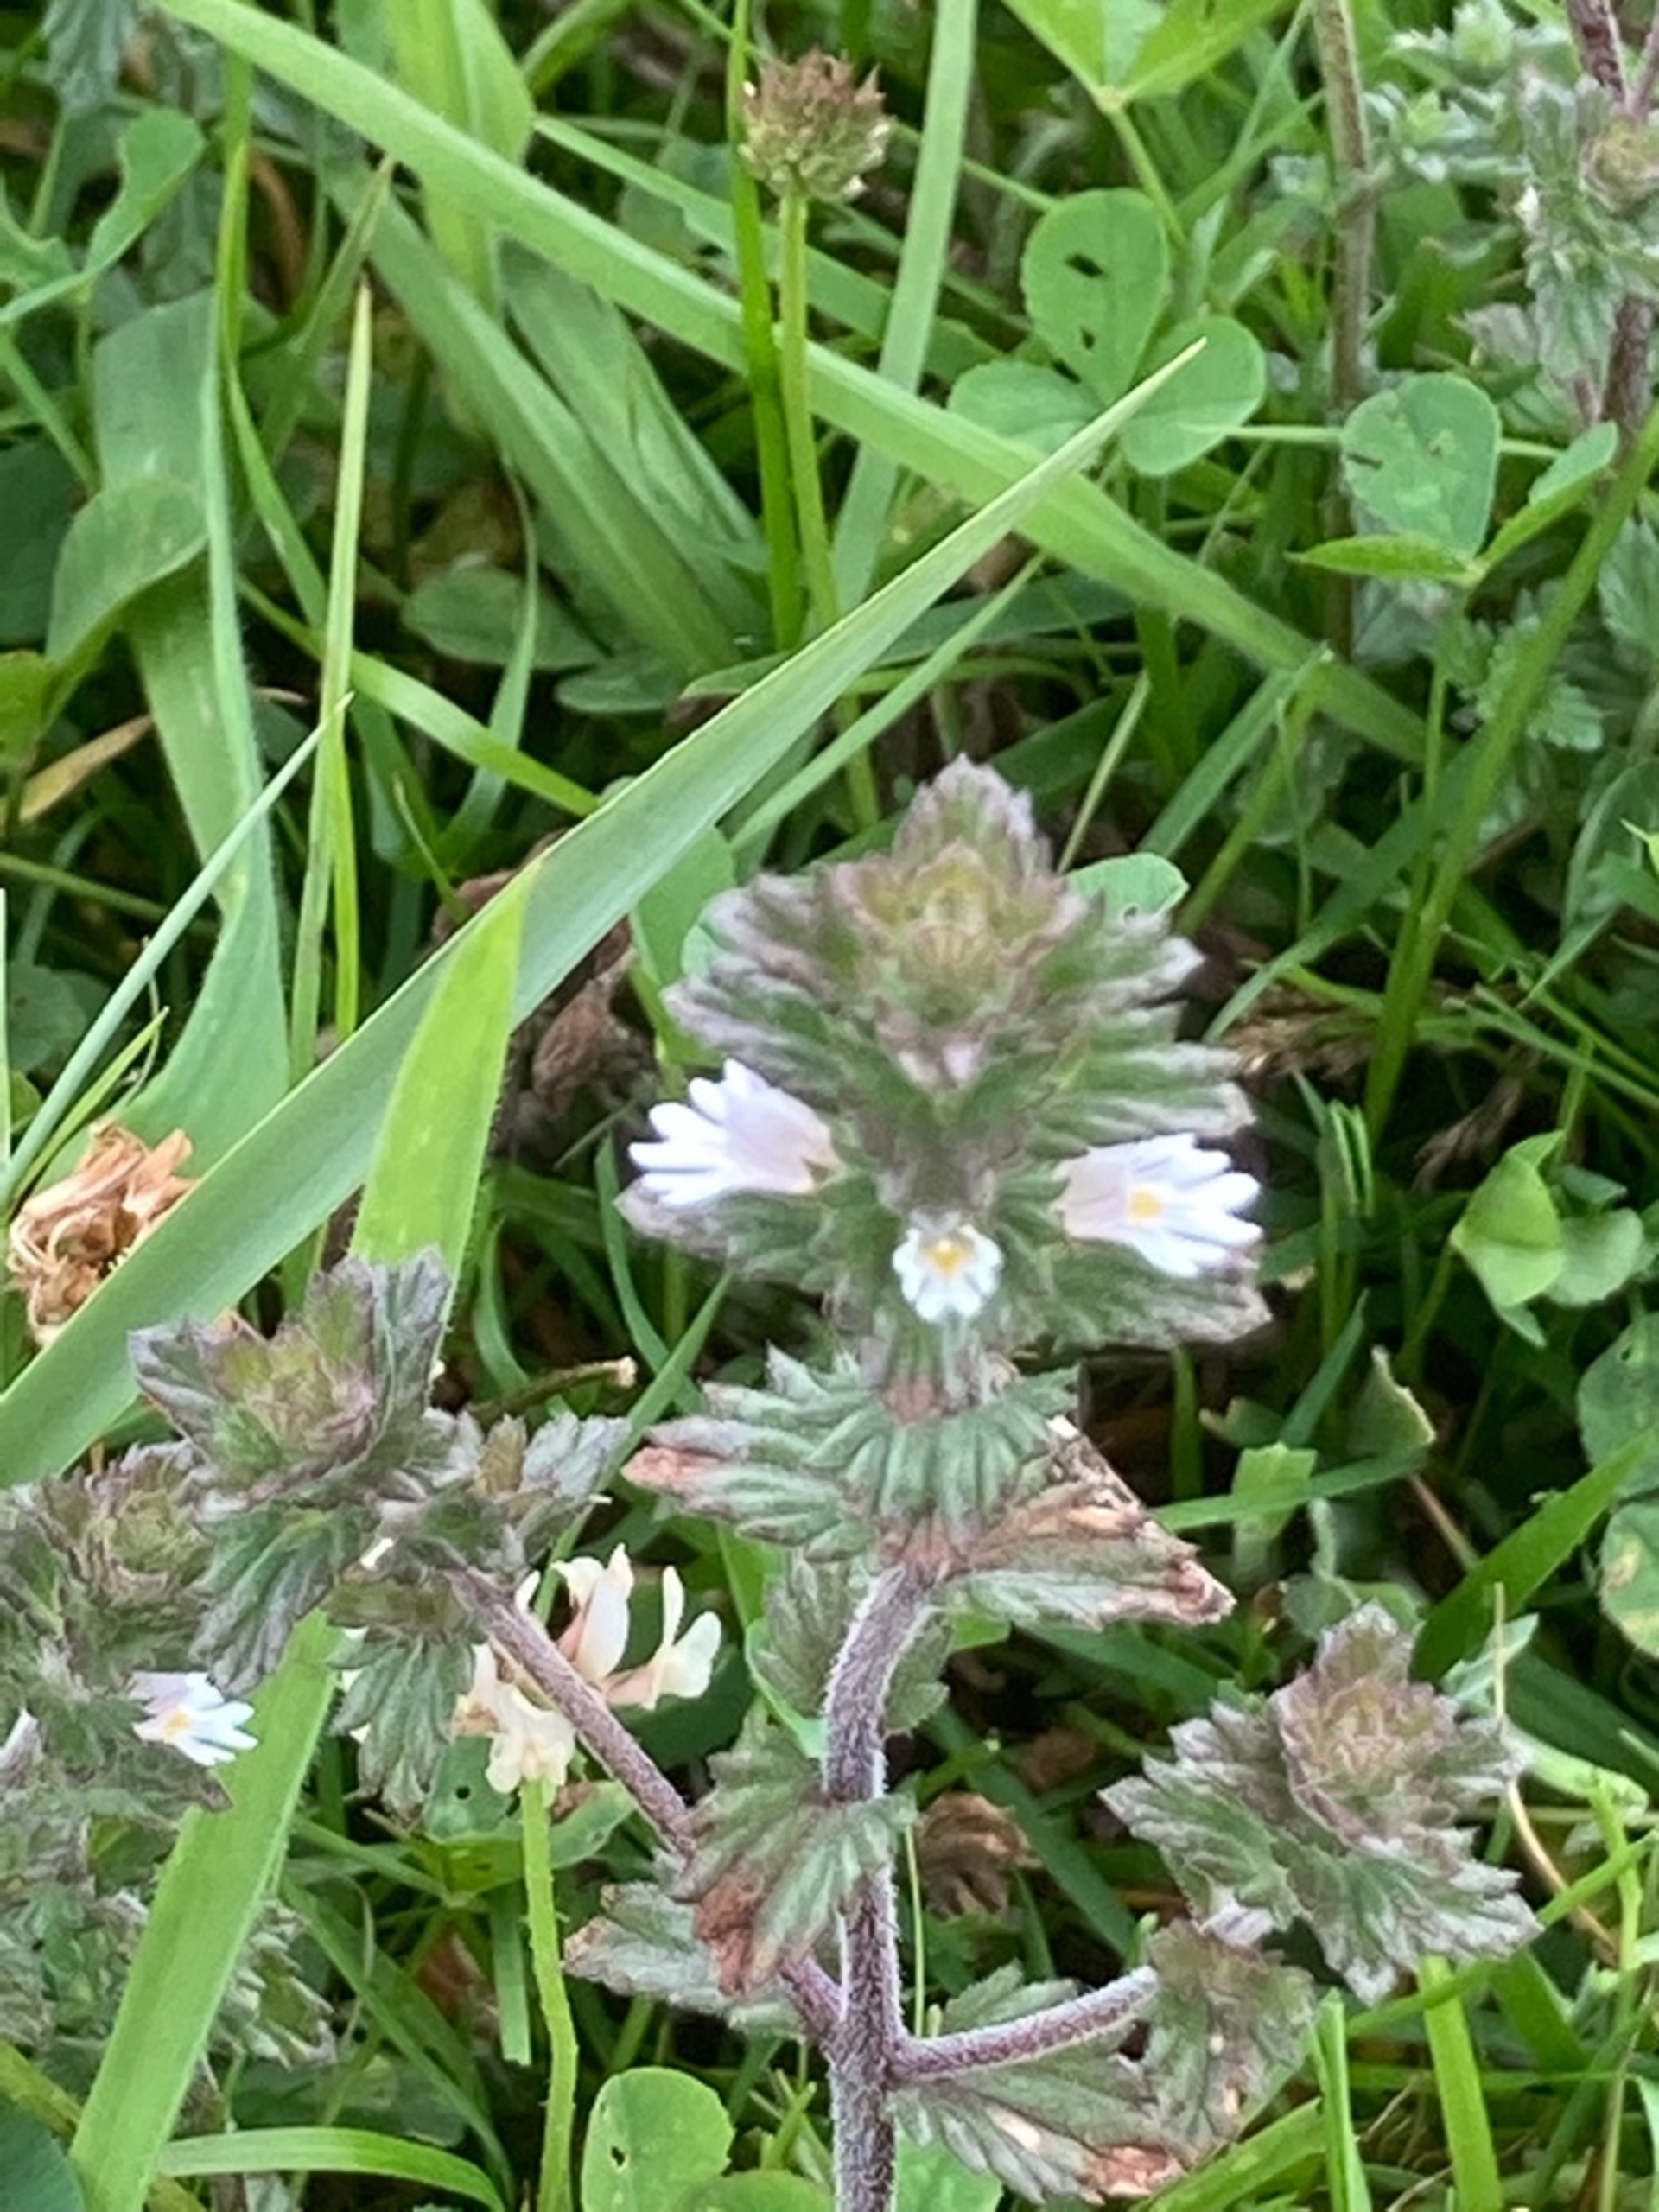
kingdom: Plantae
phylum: Tracheophyta
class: Magnoliopsida
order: Lamiales
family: Orobanchaceae
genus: Euphrasia
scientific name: Euphrasia nemorosa
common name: Kort øjentrøst
